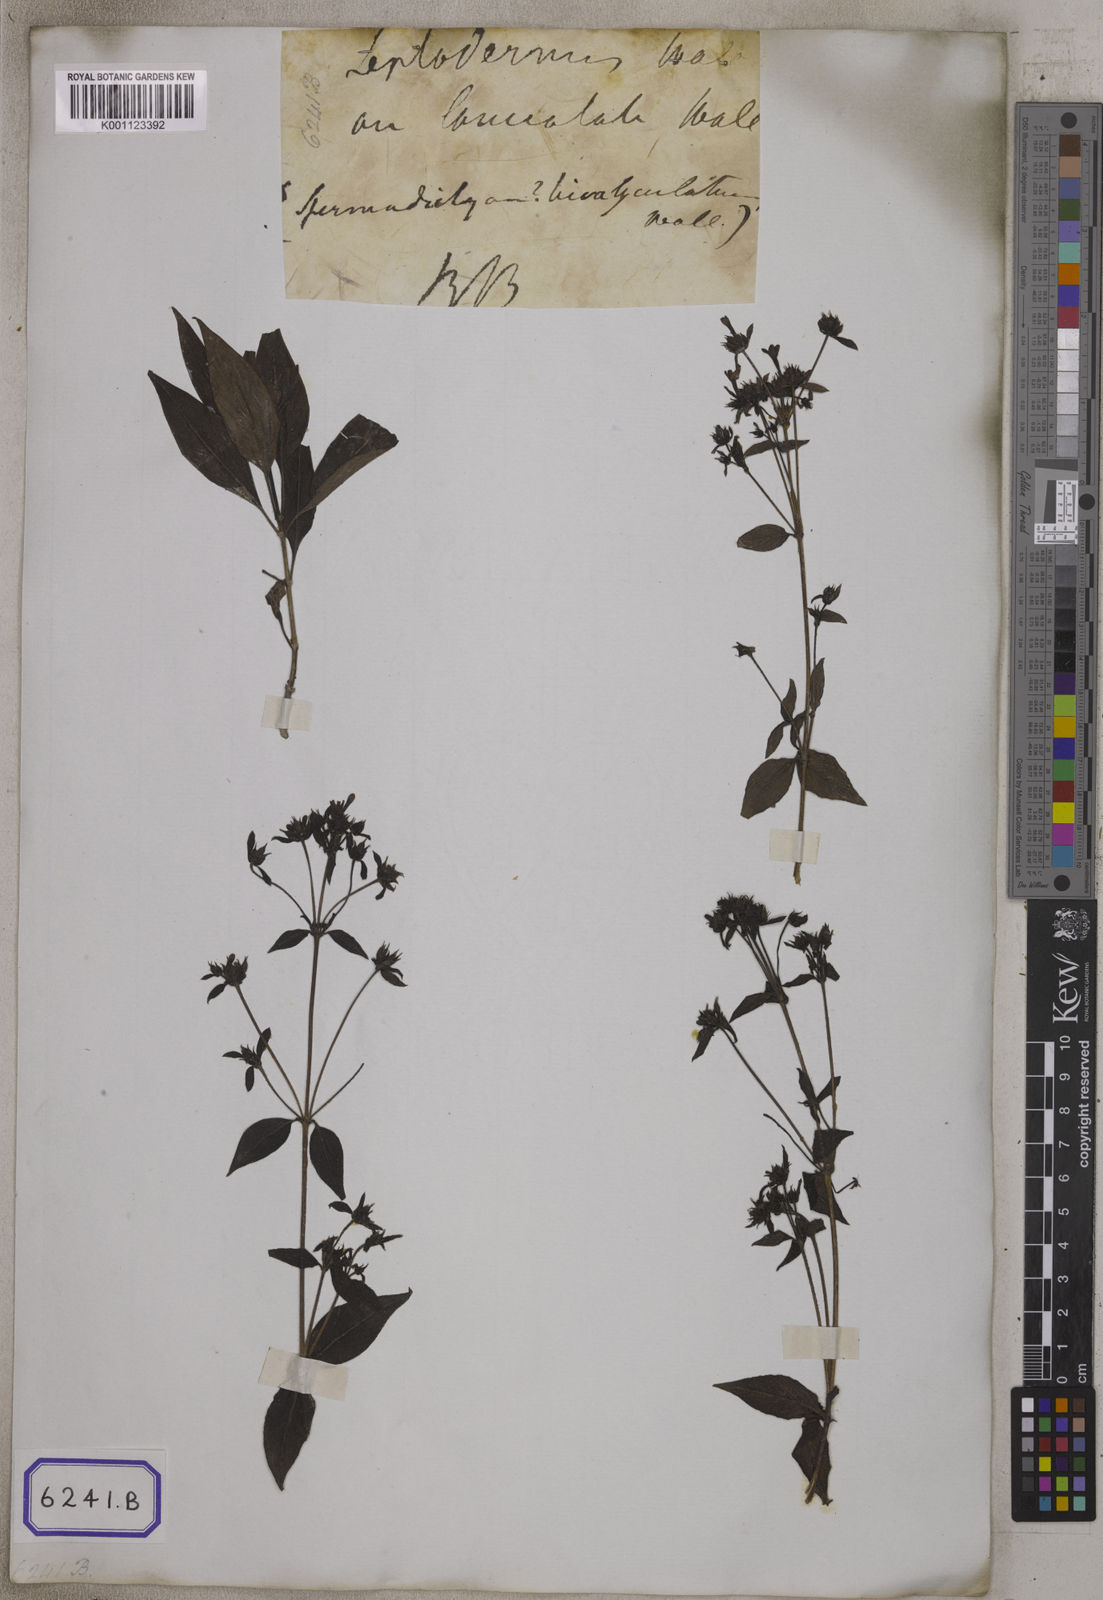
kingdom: Plantae
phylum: Tracheophyta
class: Magnoliopsida
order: Gentianales
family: Rubiaceae
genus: Leptodermis
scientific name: Leptodermis lanceolata
